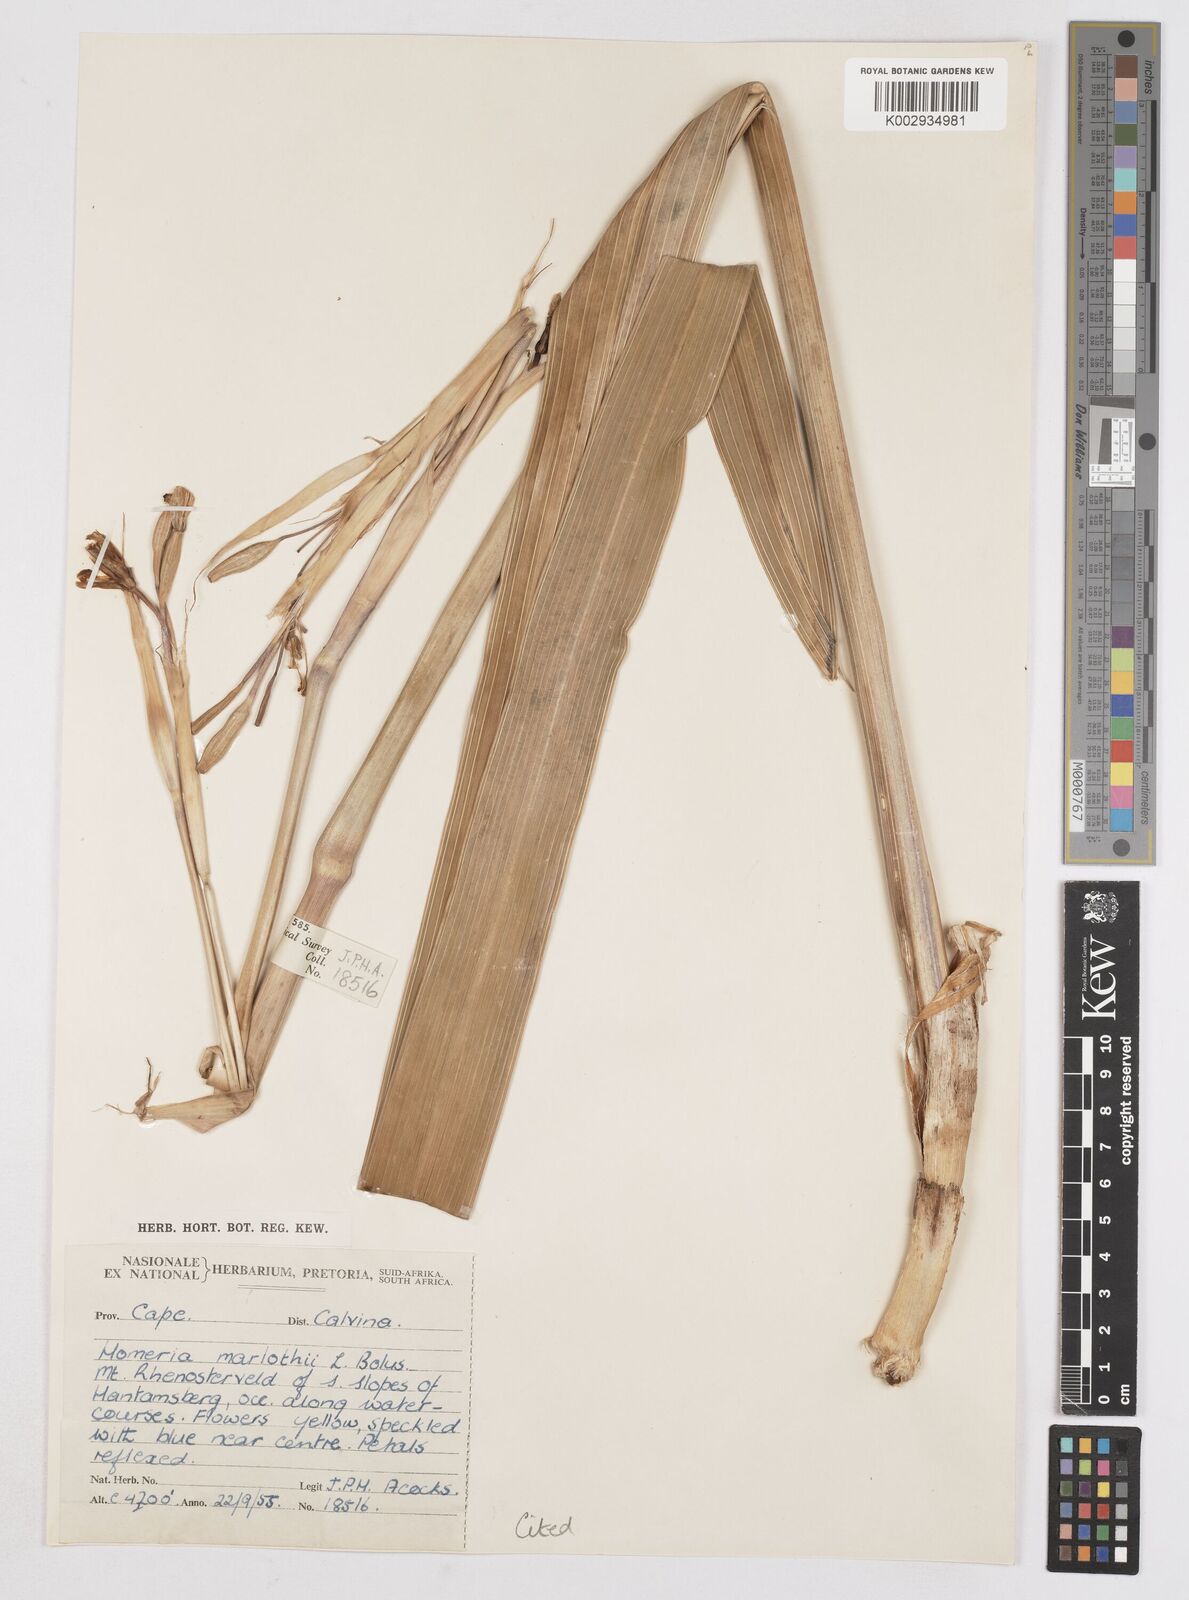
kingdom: Plantae
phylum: Tracheophyta
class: Liliopsida
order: Asparagales
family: Iridaceae
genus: Moraea
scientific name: Moraea marlothii
